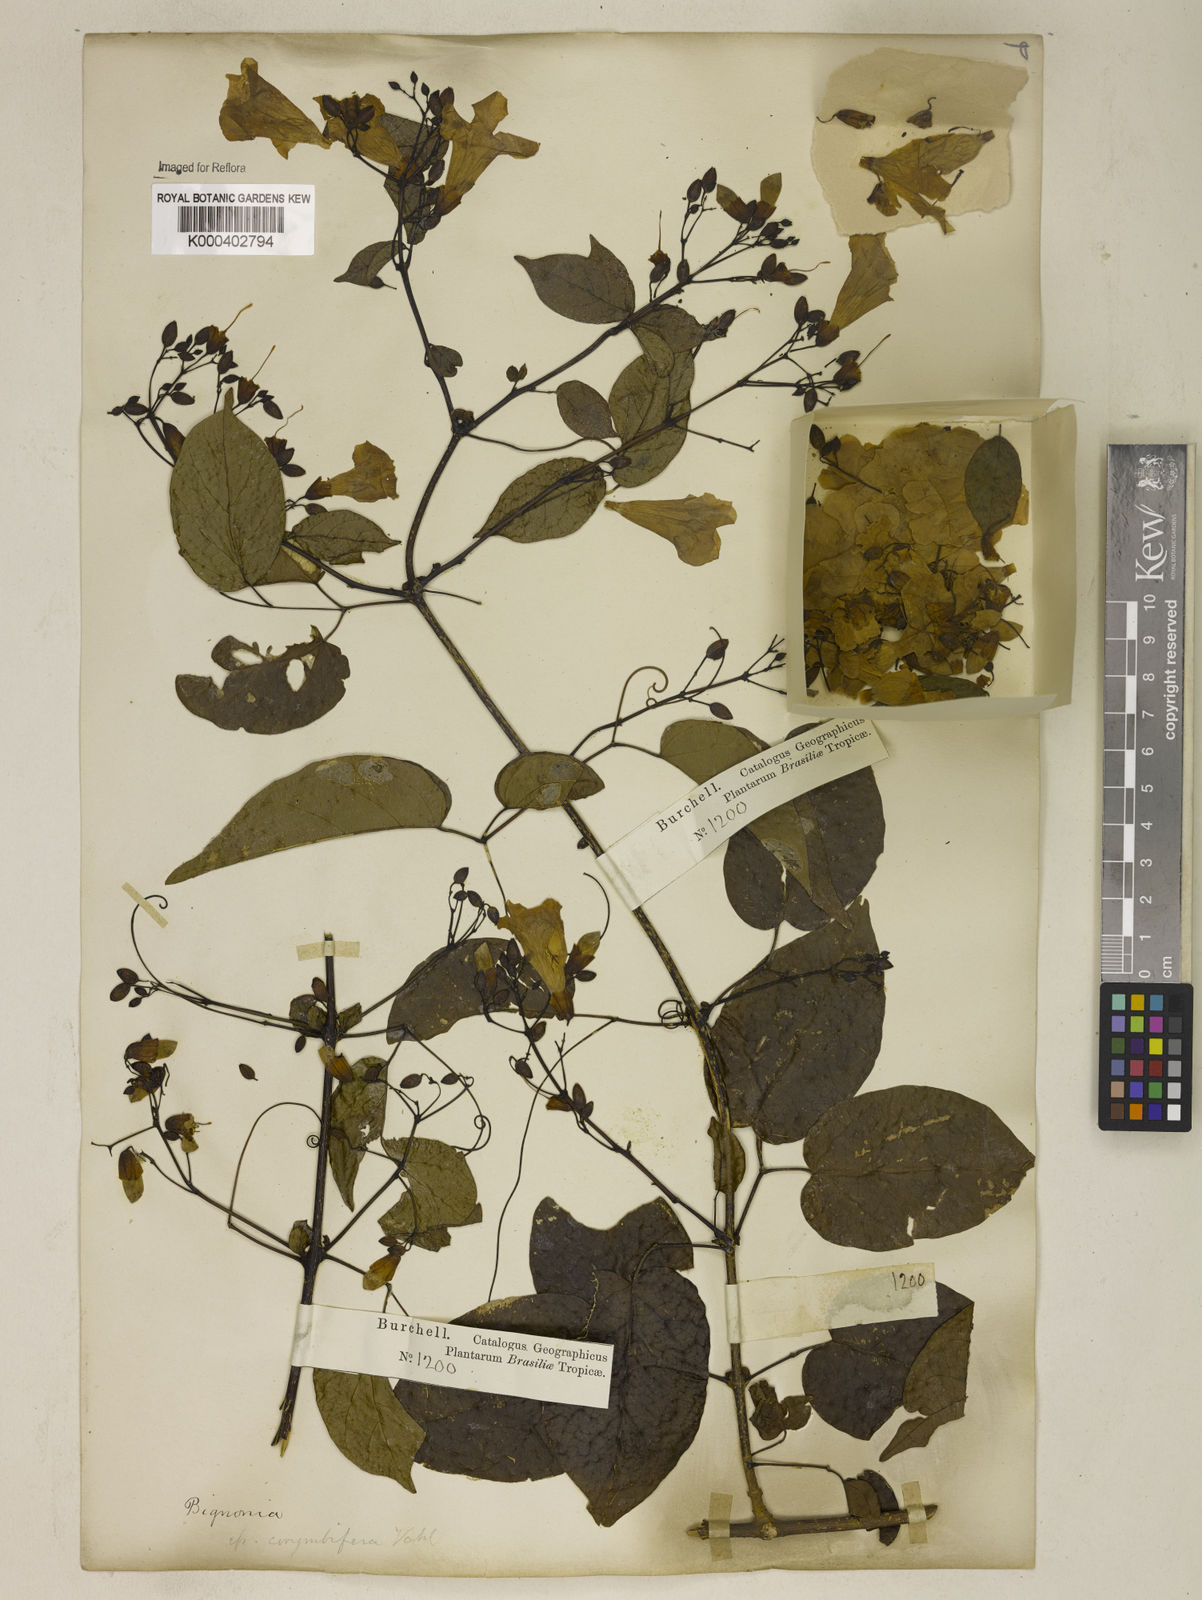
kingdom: Plantae
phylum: Tracheophyta
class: Magnoliopsida
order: Lamiales
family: Bignoniaceae
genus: Tanaecium
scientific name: Tanaecium selloi
